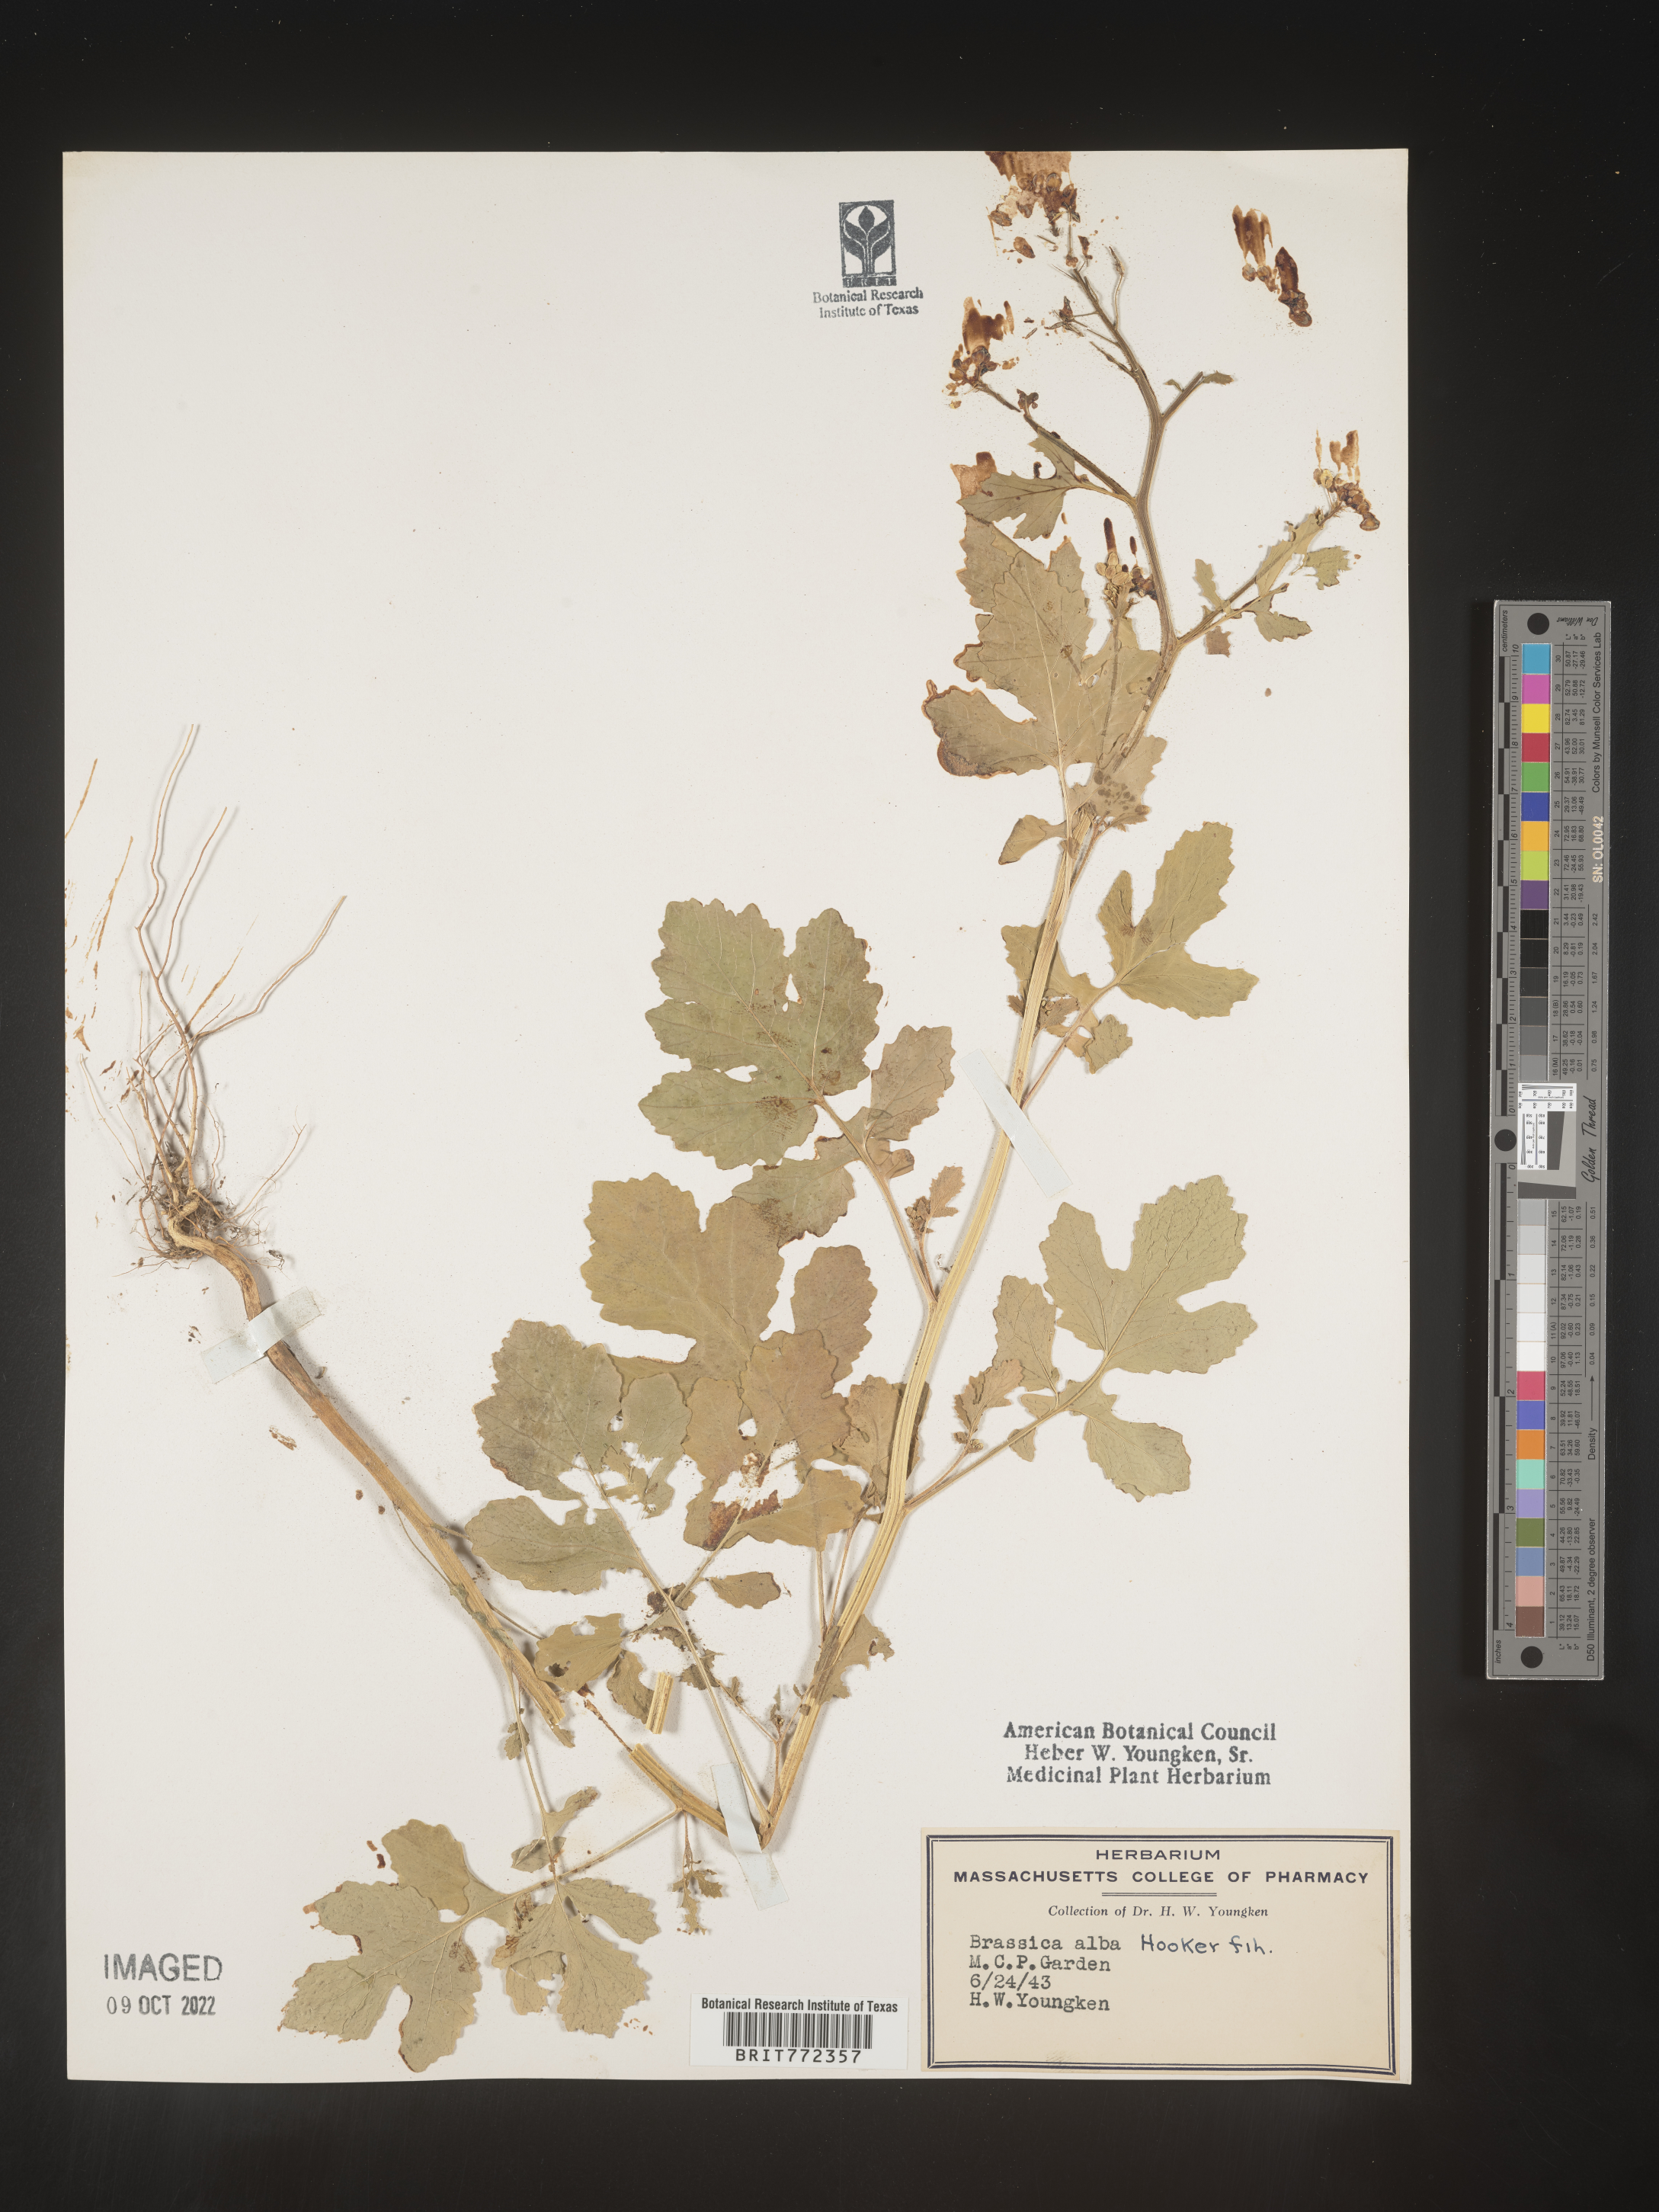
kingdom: Plantae
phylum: Tracheophyta
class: Magnoliopsida
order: Brassicales
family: Brassicaceae
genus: Brassica
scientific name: Brassica
